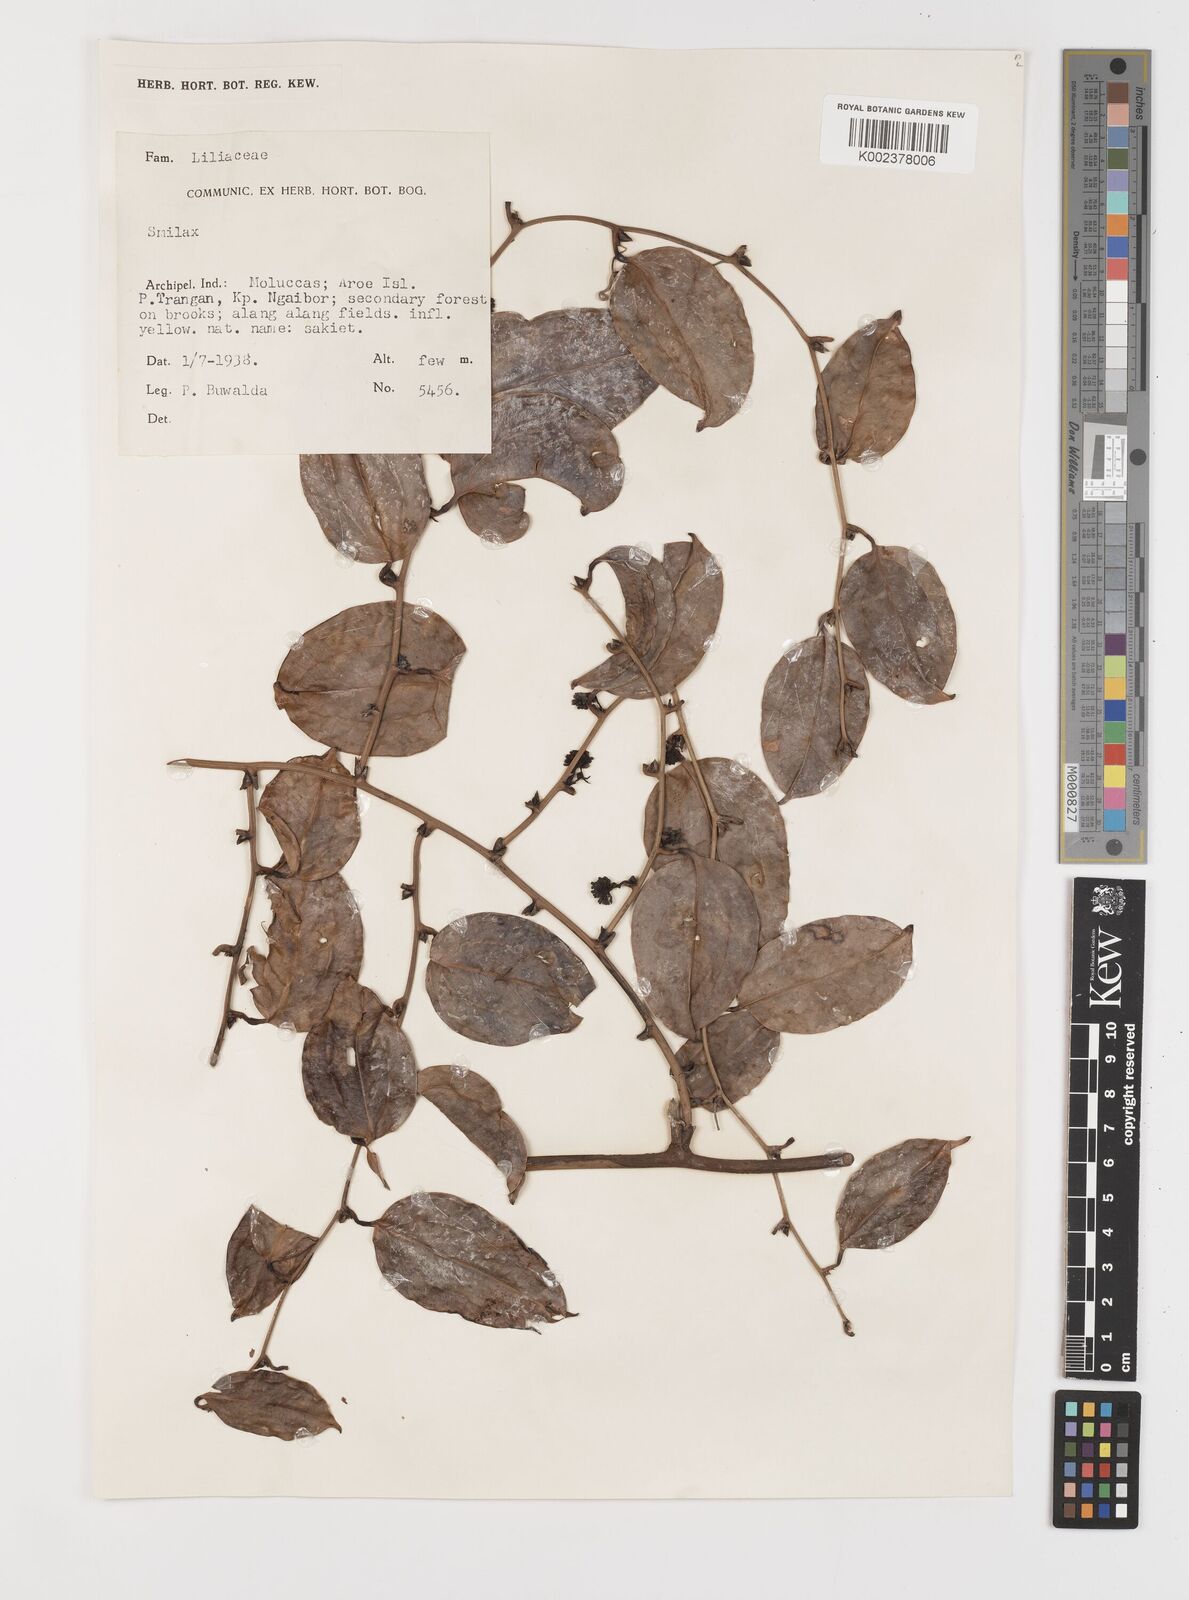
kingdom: Plantae
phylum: Tracheophyta
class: Liliopsida
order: Liliales
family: Smilacaceae
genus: Smilax
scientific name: Smilax
